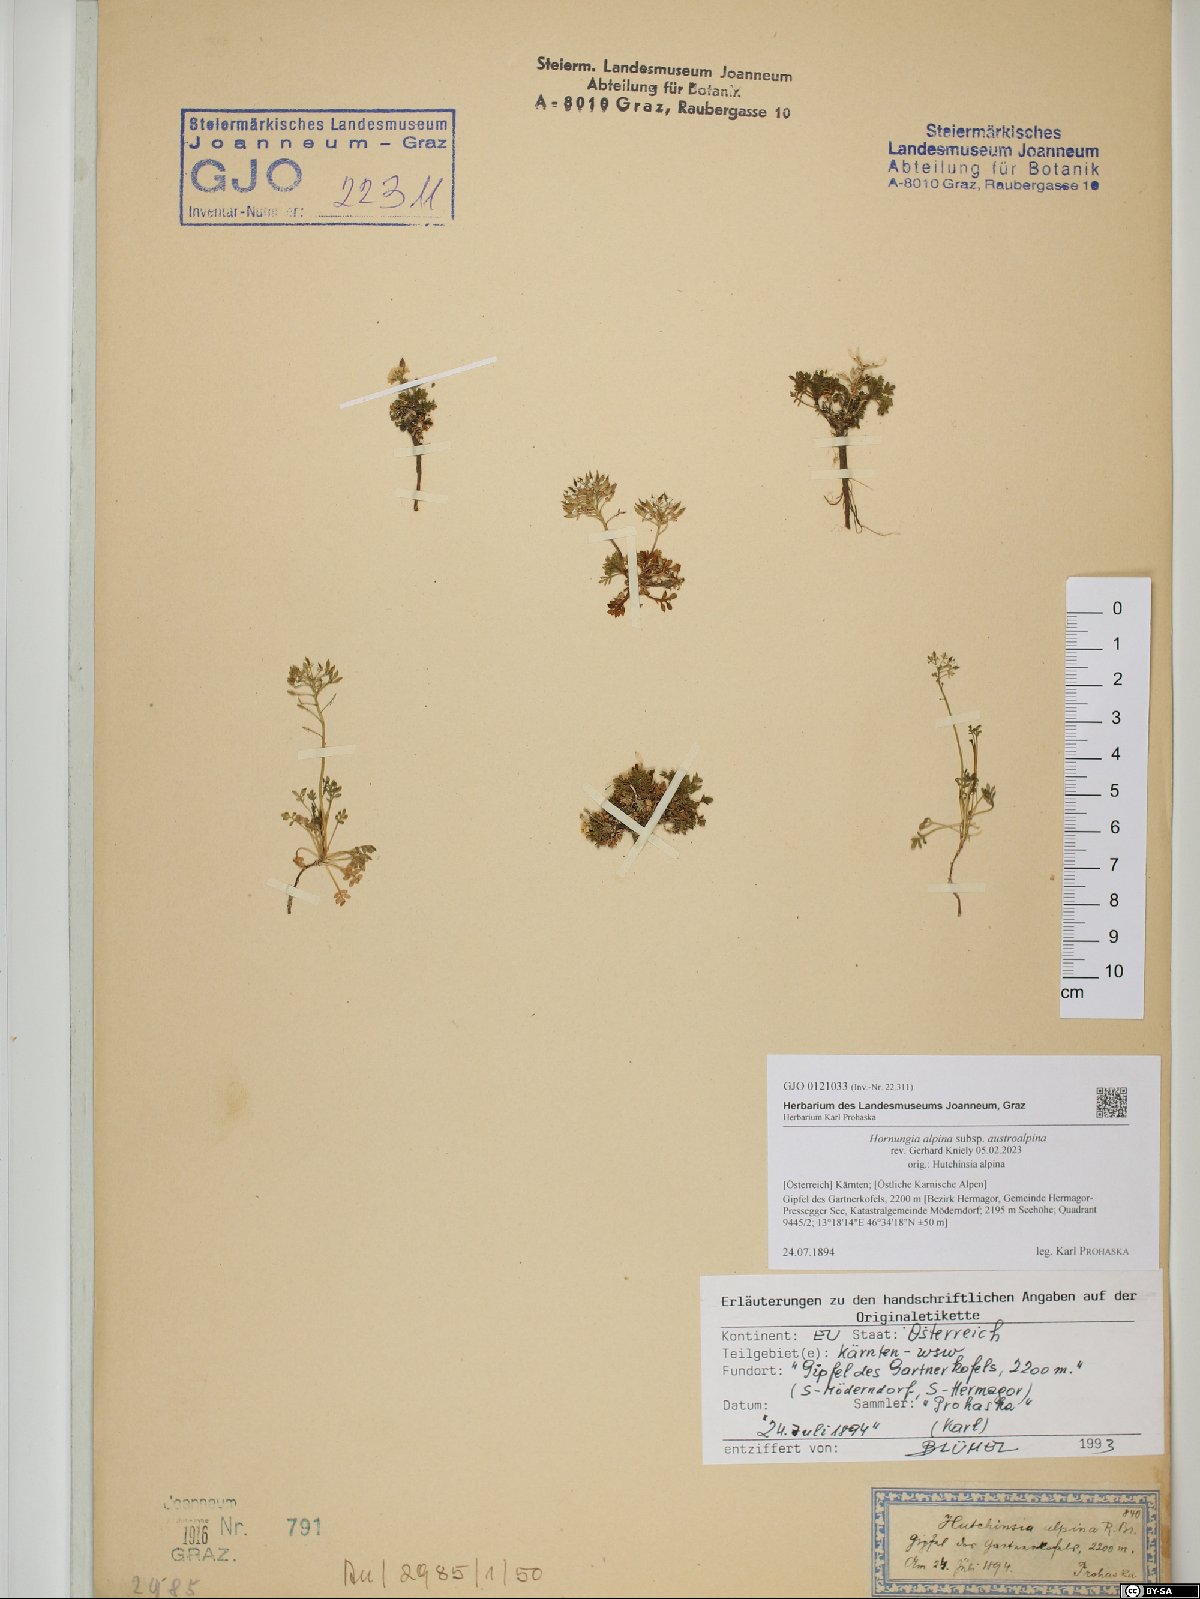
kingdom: Plantae
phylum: Tracheophyta
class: Magnoliopsida
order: Brassicales
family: Brassicaceae
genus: Hornungia
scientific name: Hornungia alpina
